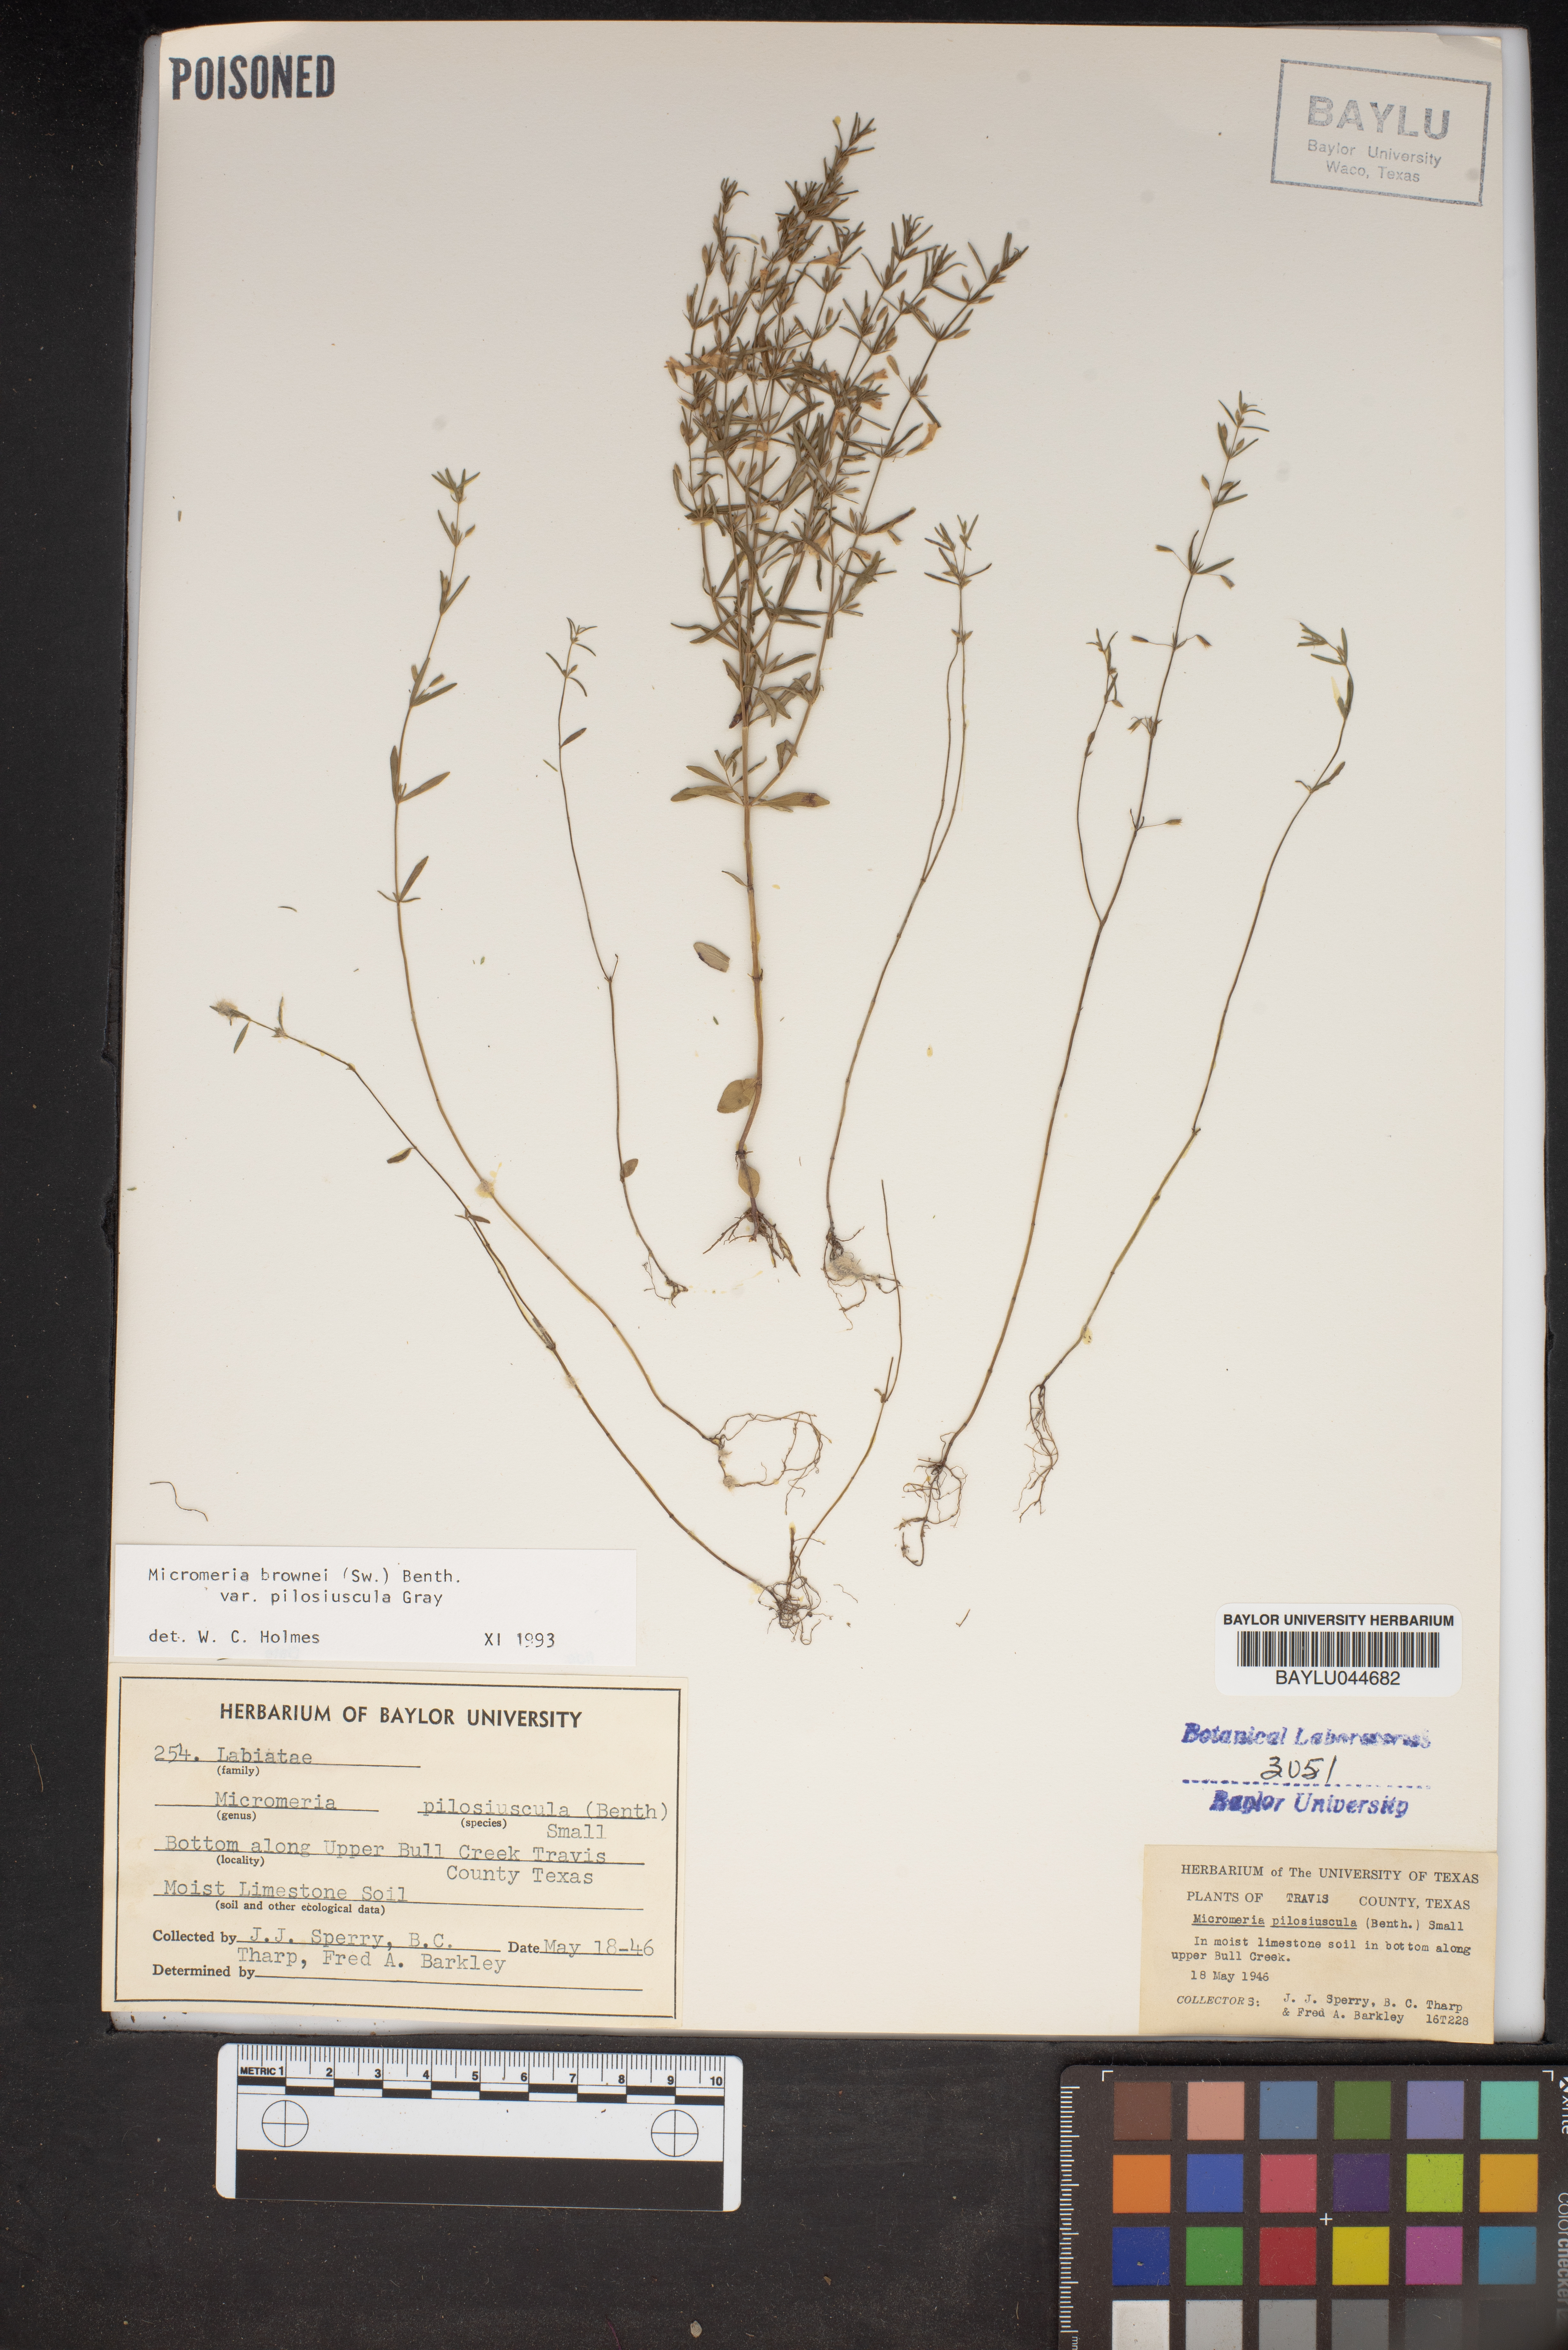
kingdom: Plantae
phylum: Tracheophyta
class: Magnoliopsida
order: Lamiales
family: Lamiaceae
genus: Clinopodium
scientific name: Clinopodium brownei
